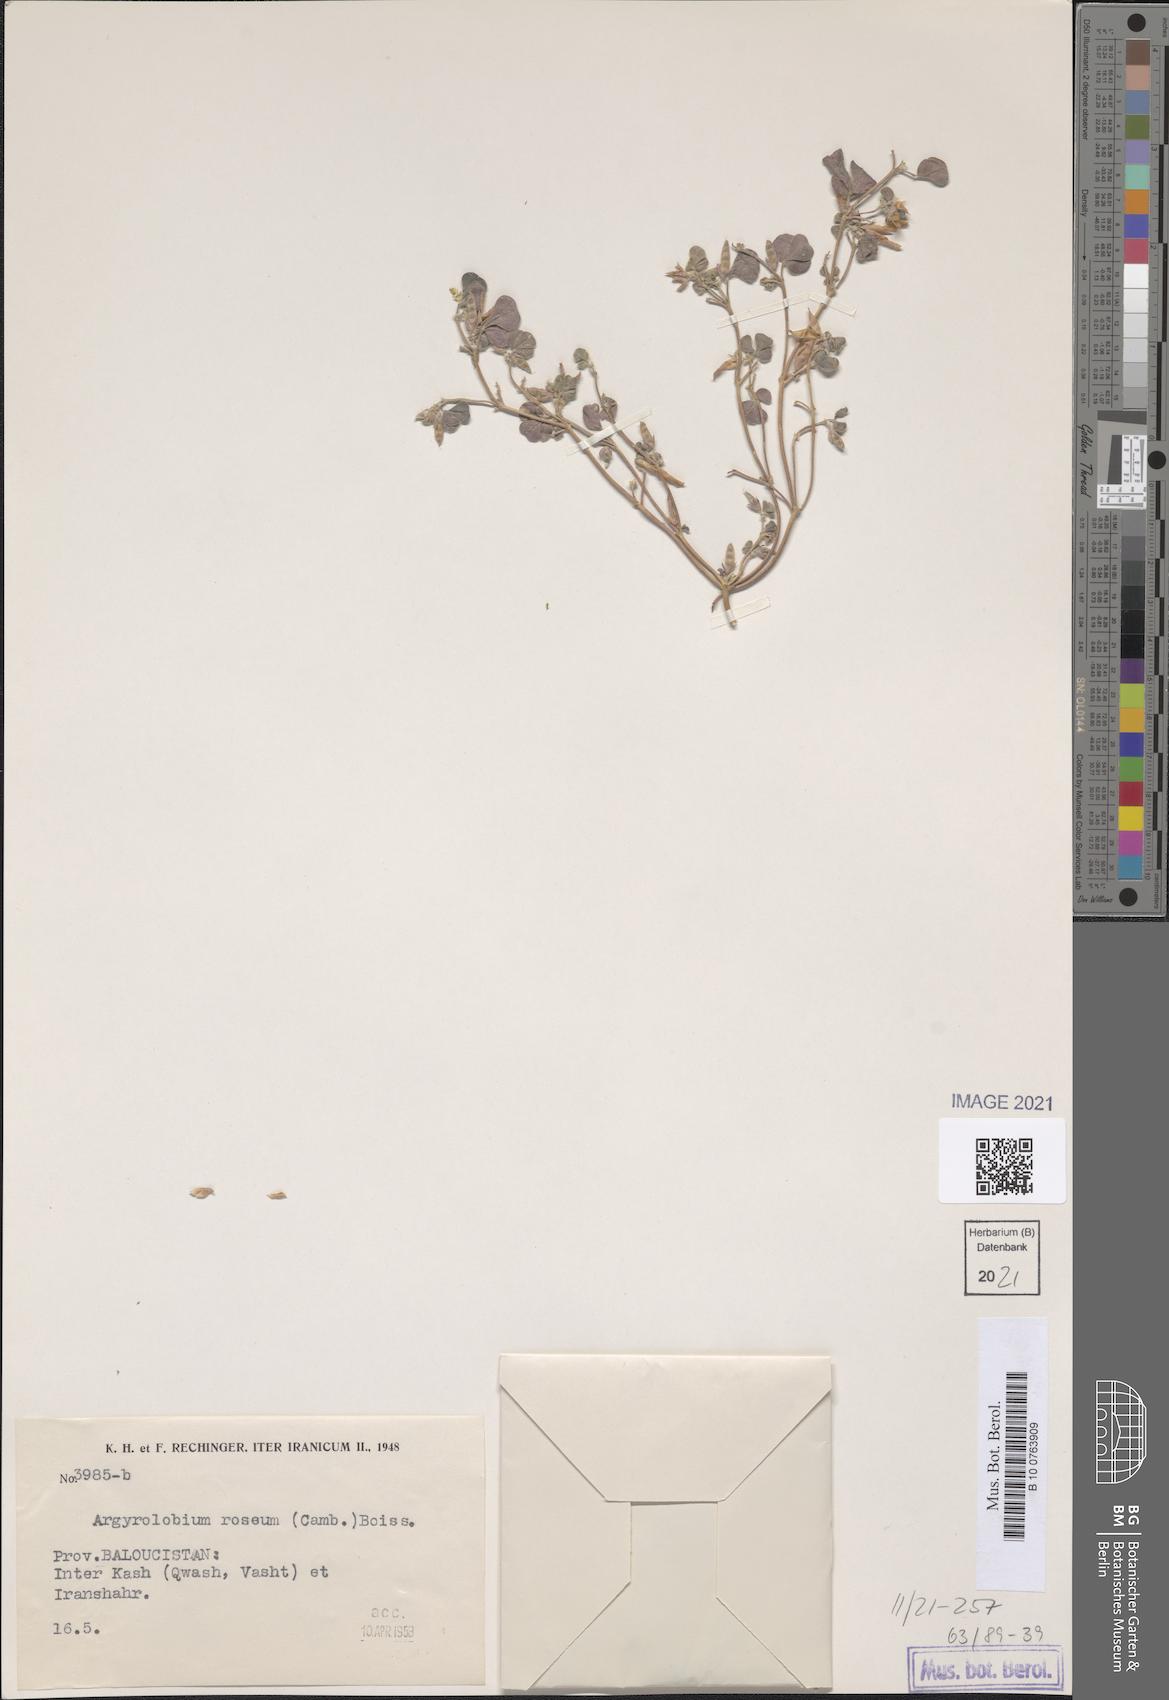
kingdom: Plantae
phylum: Tracheophyta
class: Magnoliopsida
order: Fabales
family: Fabaceae
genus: Argyrolobium
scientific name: Argyrolobium roseum
